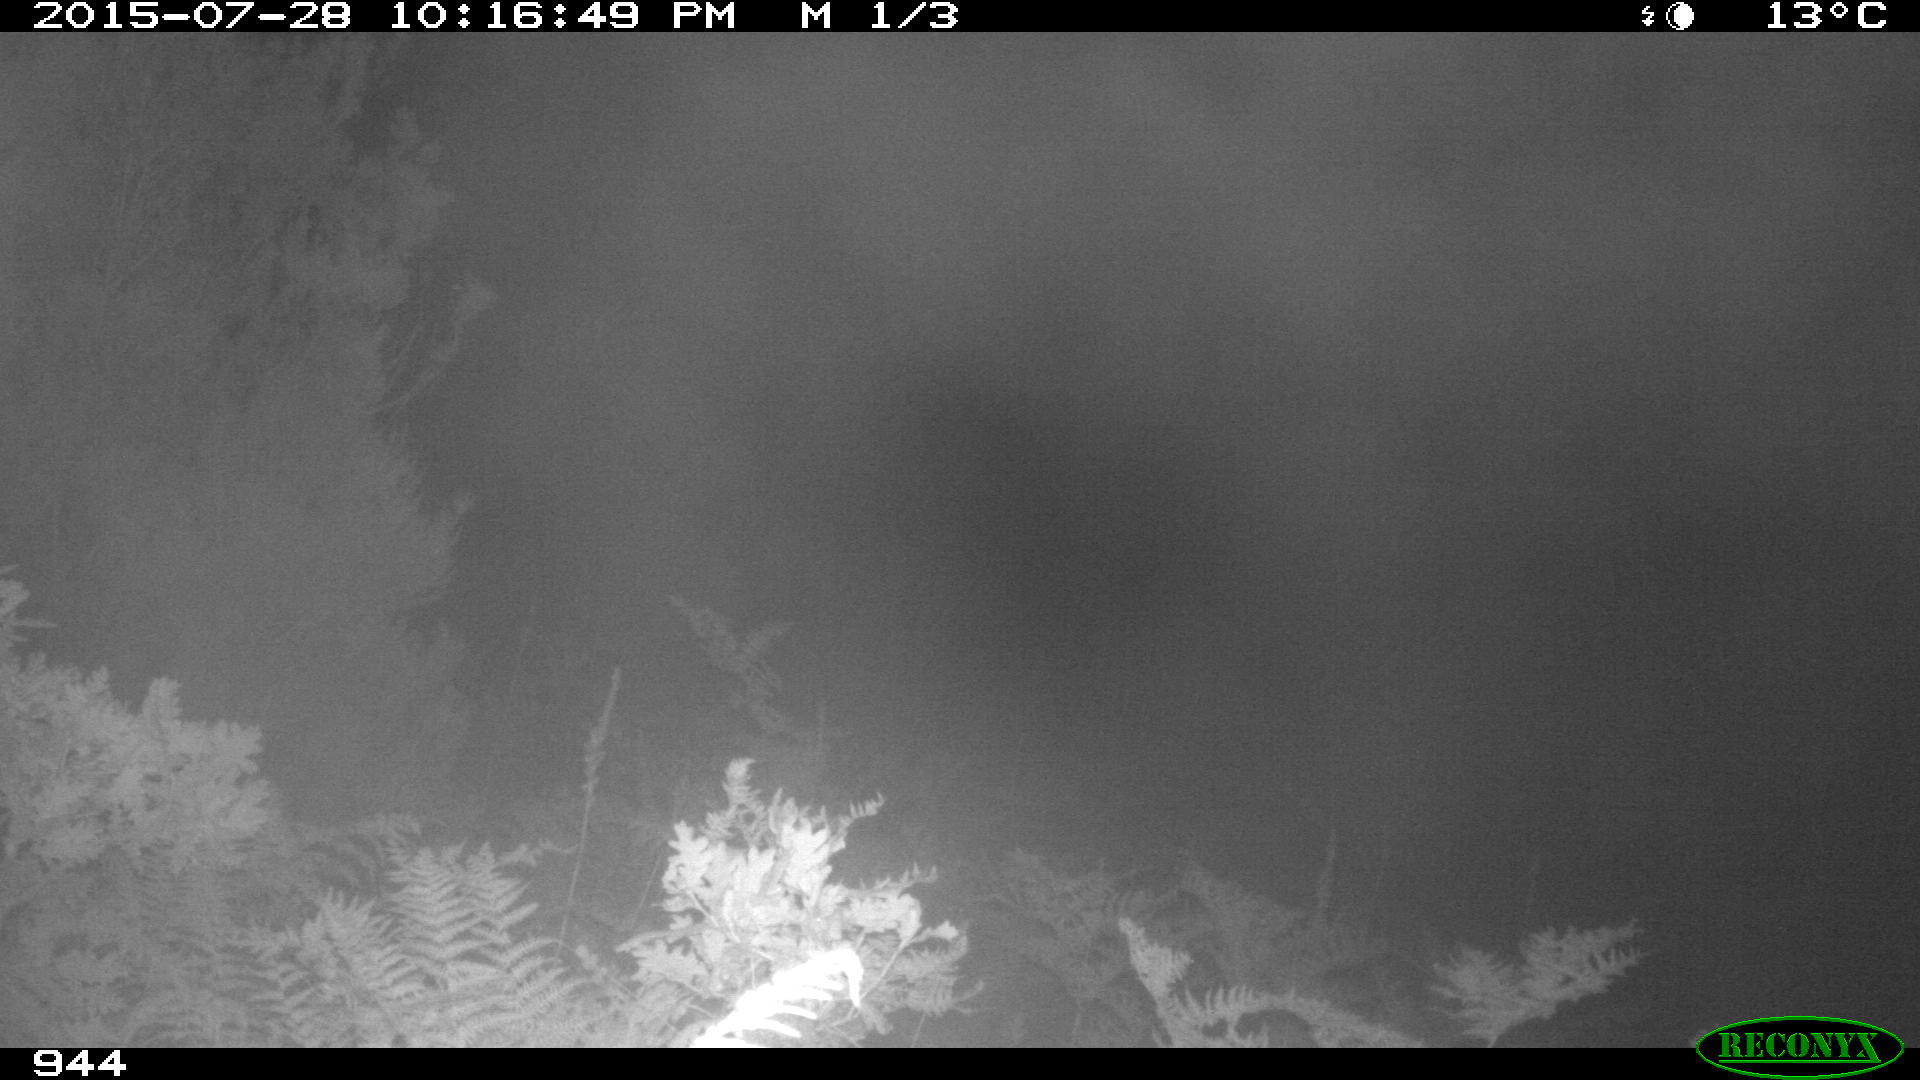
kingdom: Animalia
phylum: Chordata
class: Mammalia
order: Perissodactyla
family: Equidae
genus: Equus
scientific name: Equus caballus
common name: Horse
